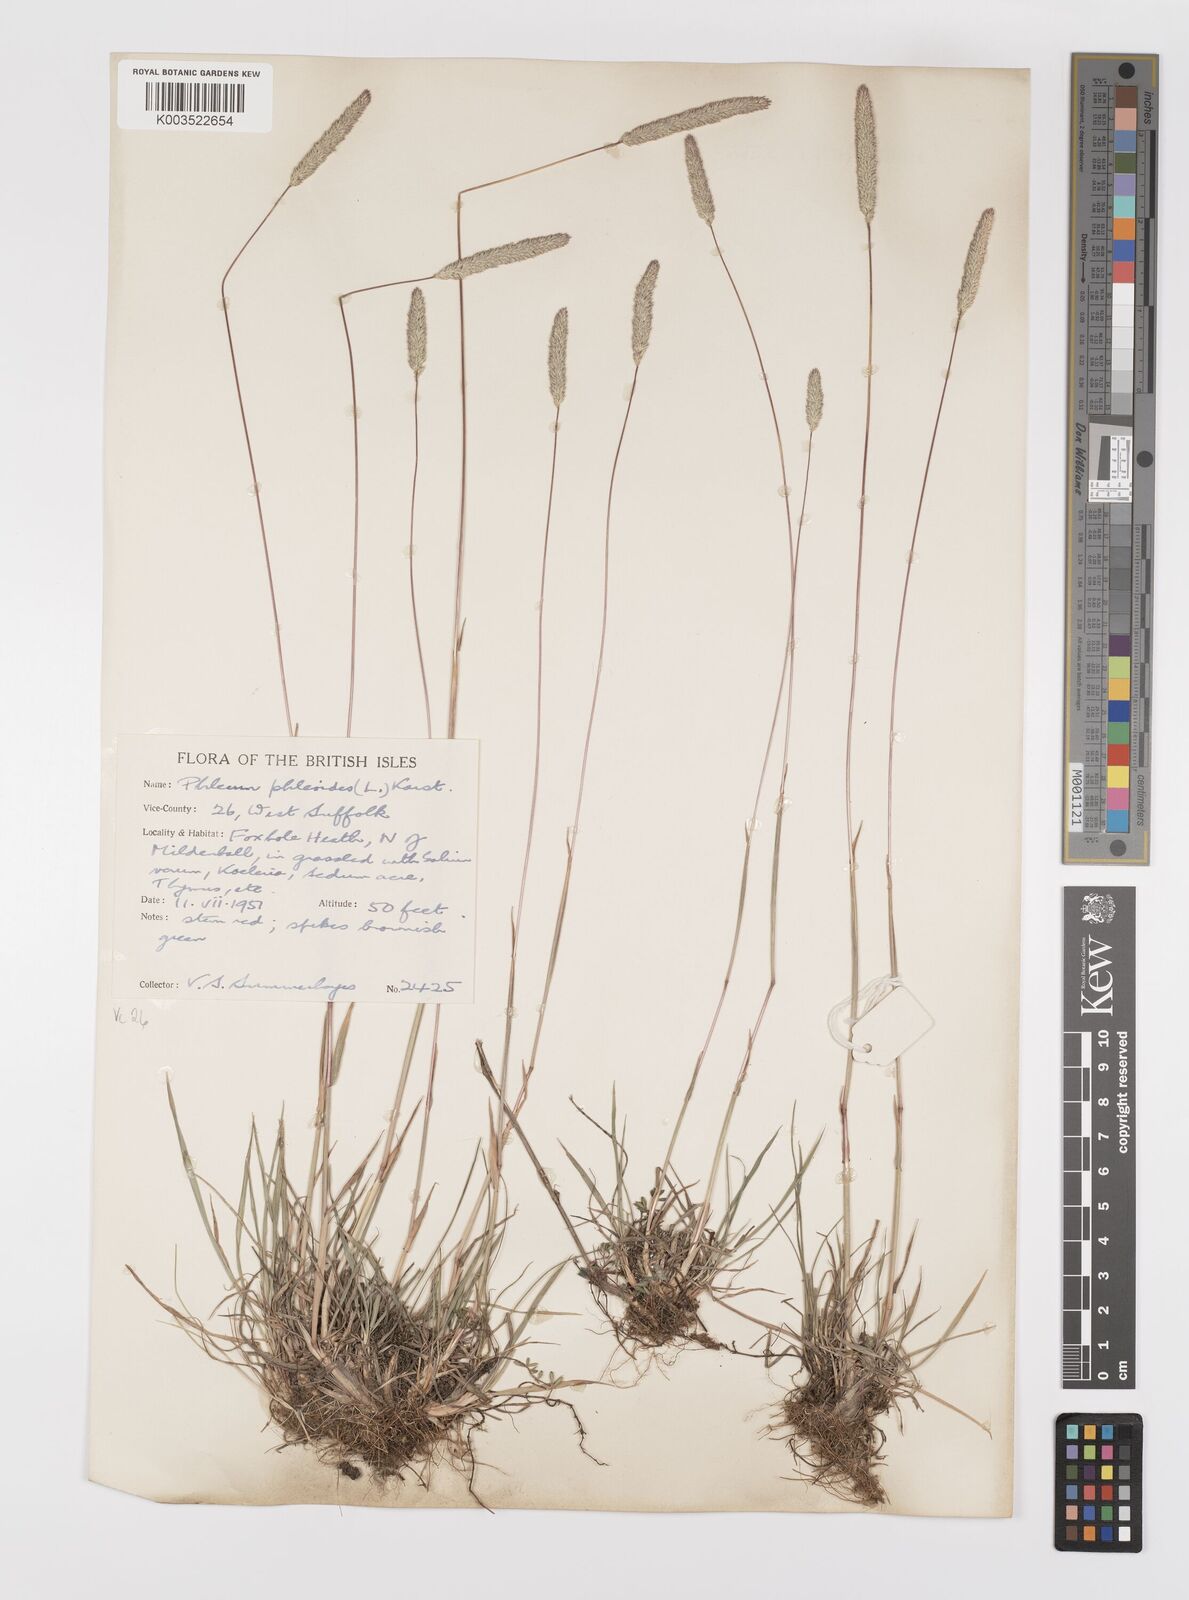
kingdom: Plantae
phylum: Tracheophyta
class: Liliopsida
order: Poales
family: Poaceae
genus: Phleum
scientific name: Phleum phleoides
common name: Purple-stem cat's-tail
